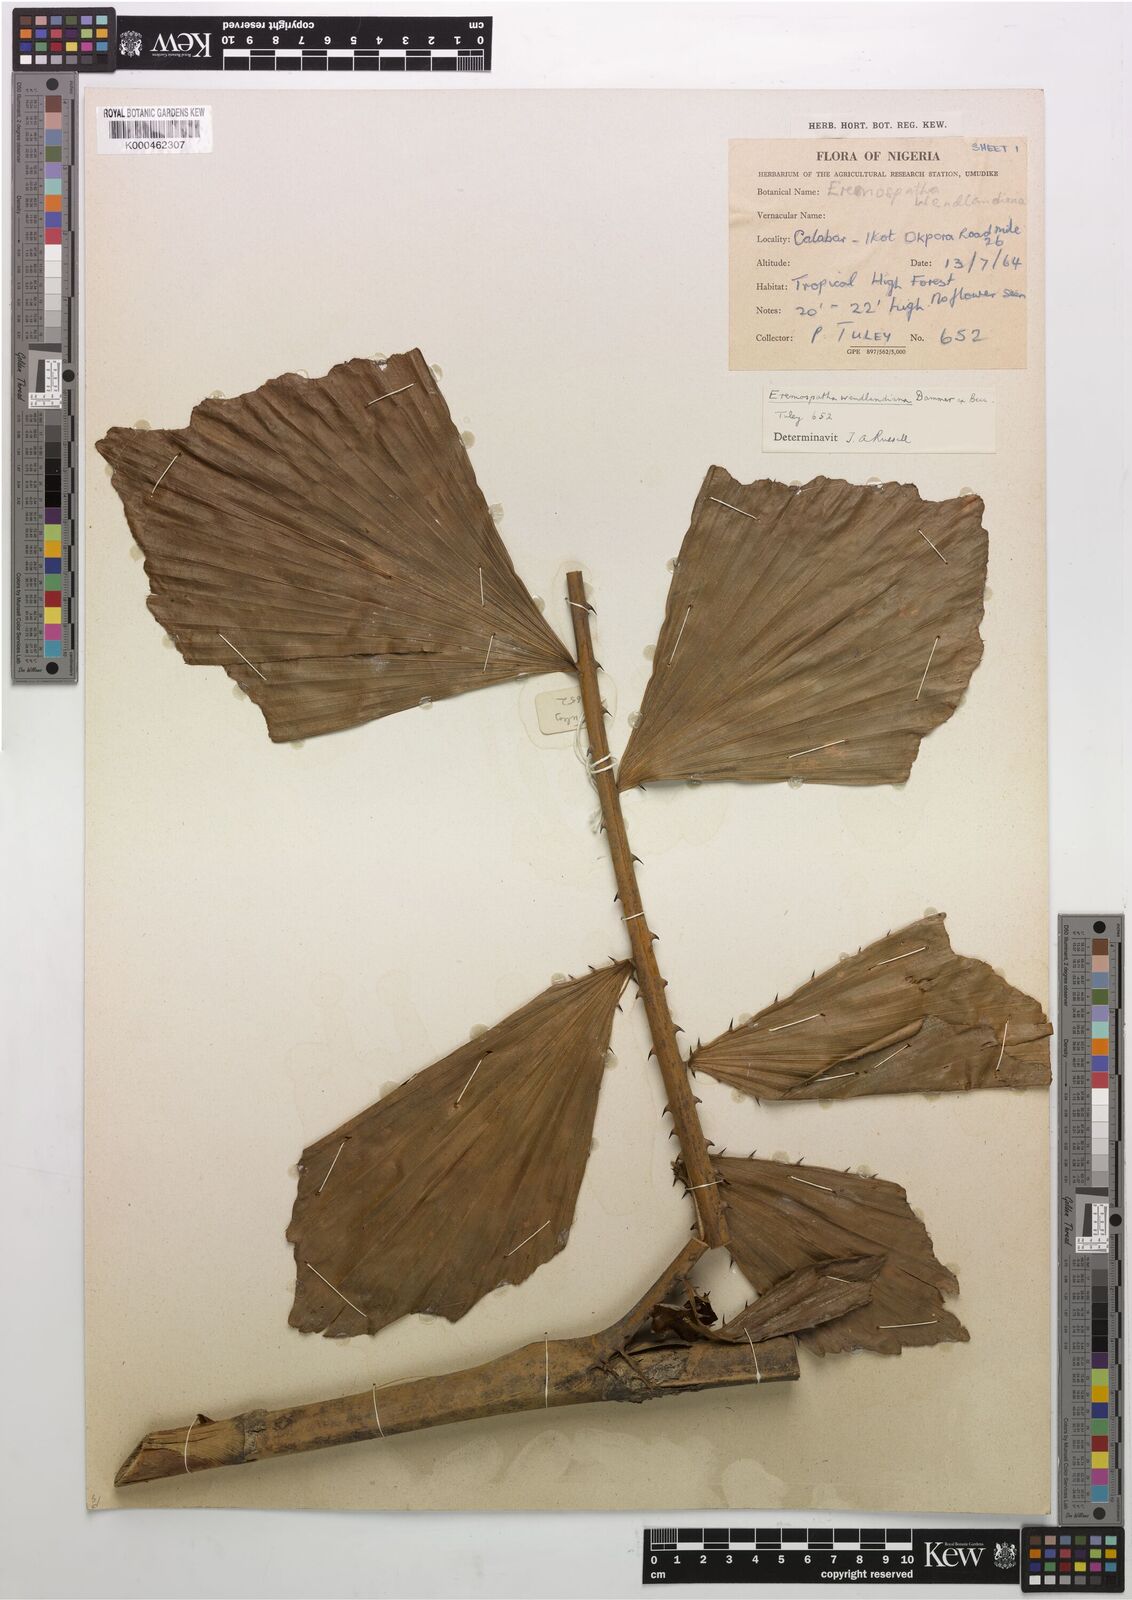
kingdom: Plantae
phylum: Tracheophyta
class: Liliopsida
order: Arecales
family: Arecaceae
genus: Eremospatha
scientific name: Eremospatha wendlandiana
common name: Rattan
